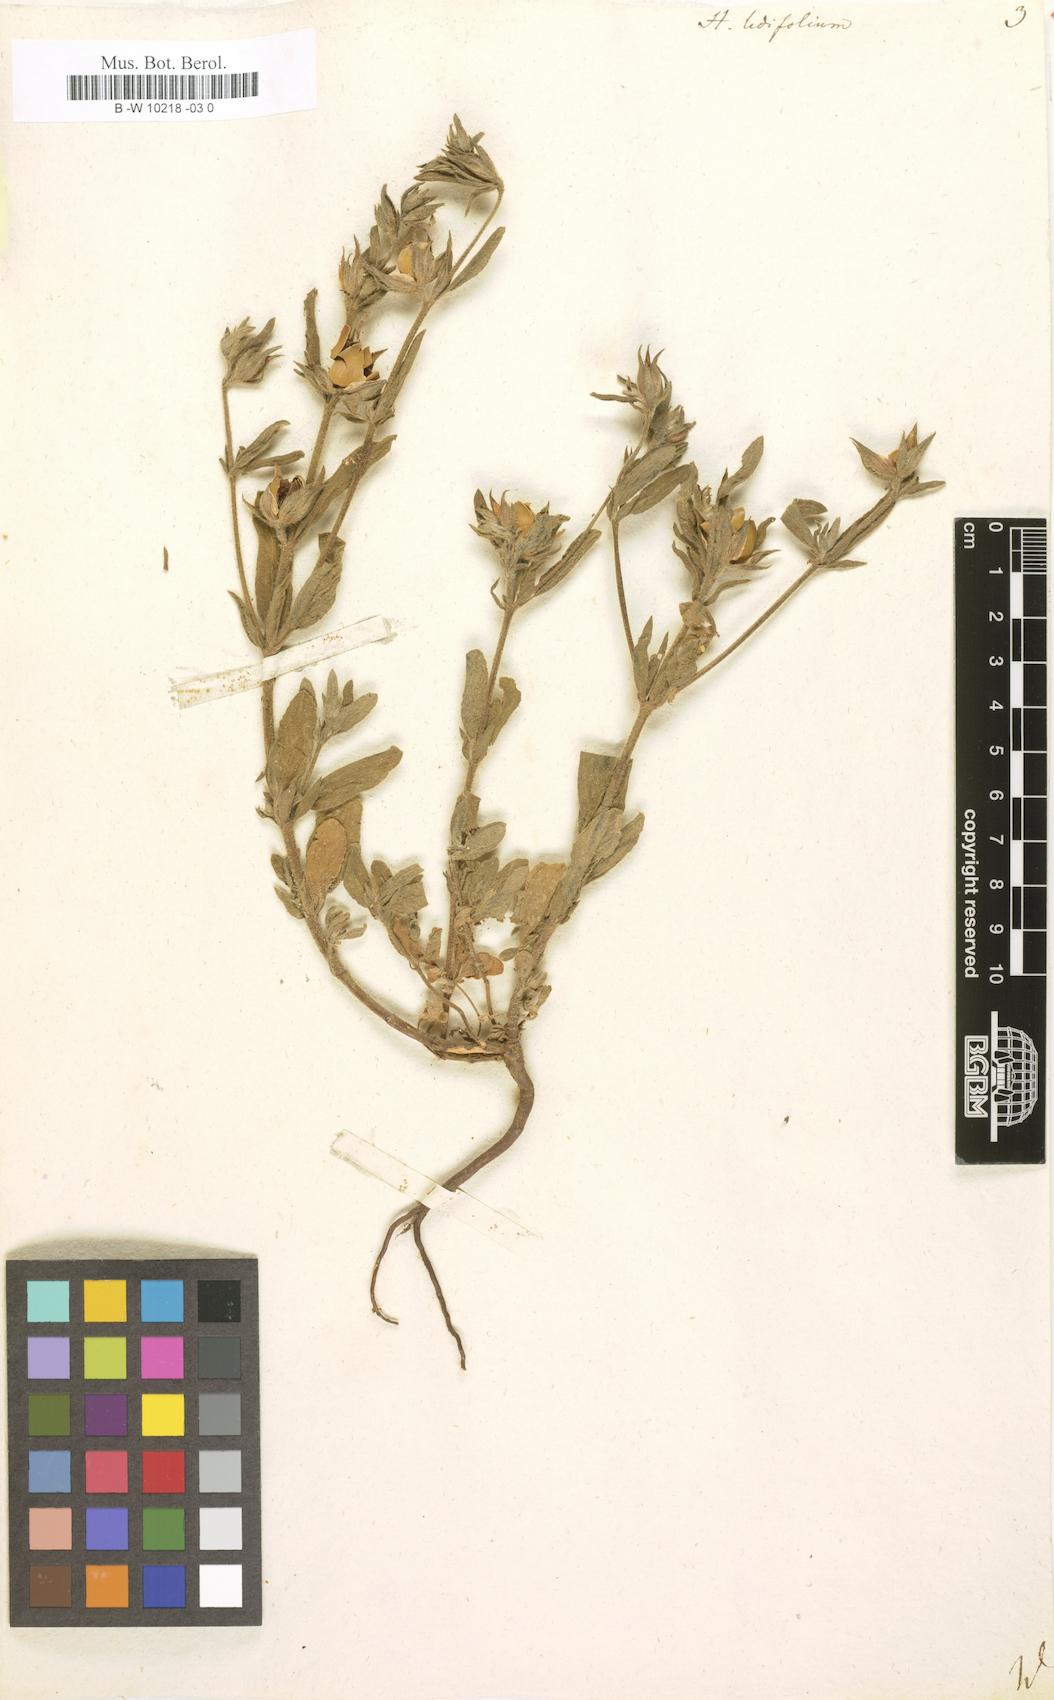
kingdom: Plantae
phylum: Tracheophyta
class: Magnoliopsida
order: Malvales
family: Cistaceae
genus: Helianthemum
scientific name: Helianthemum ledifolium
